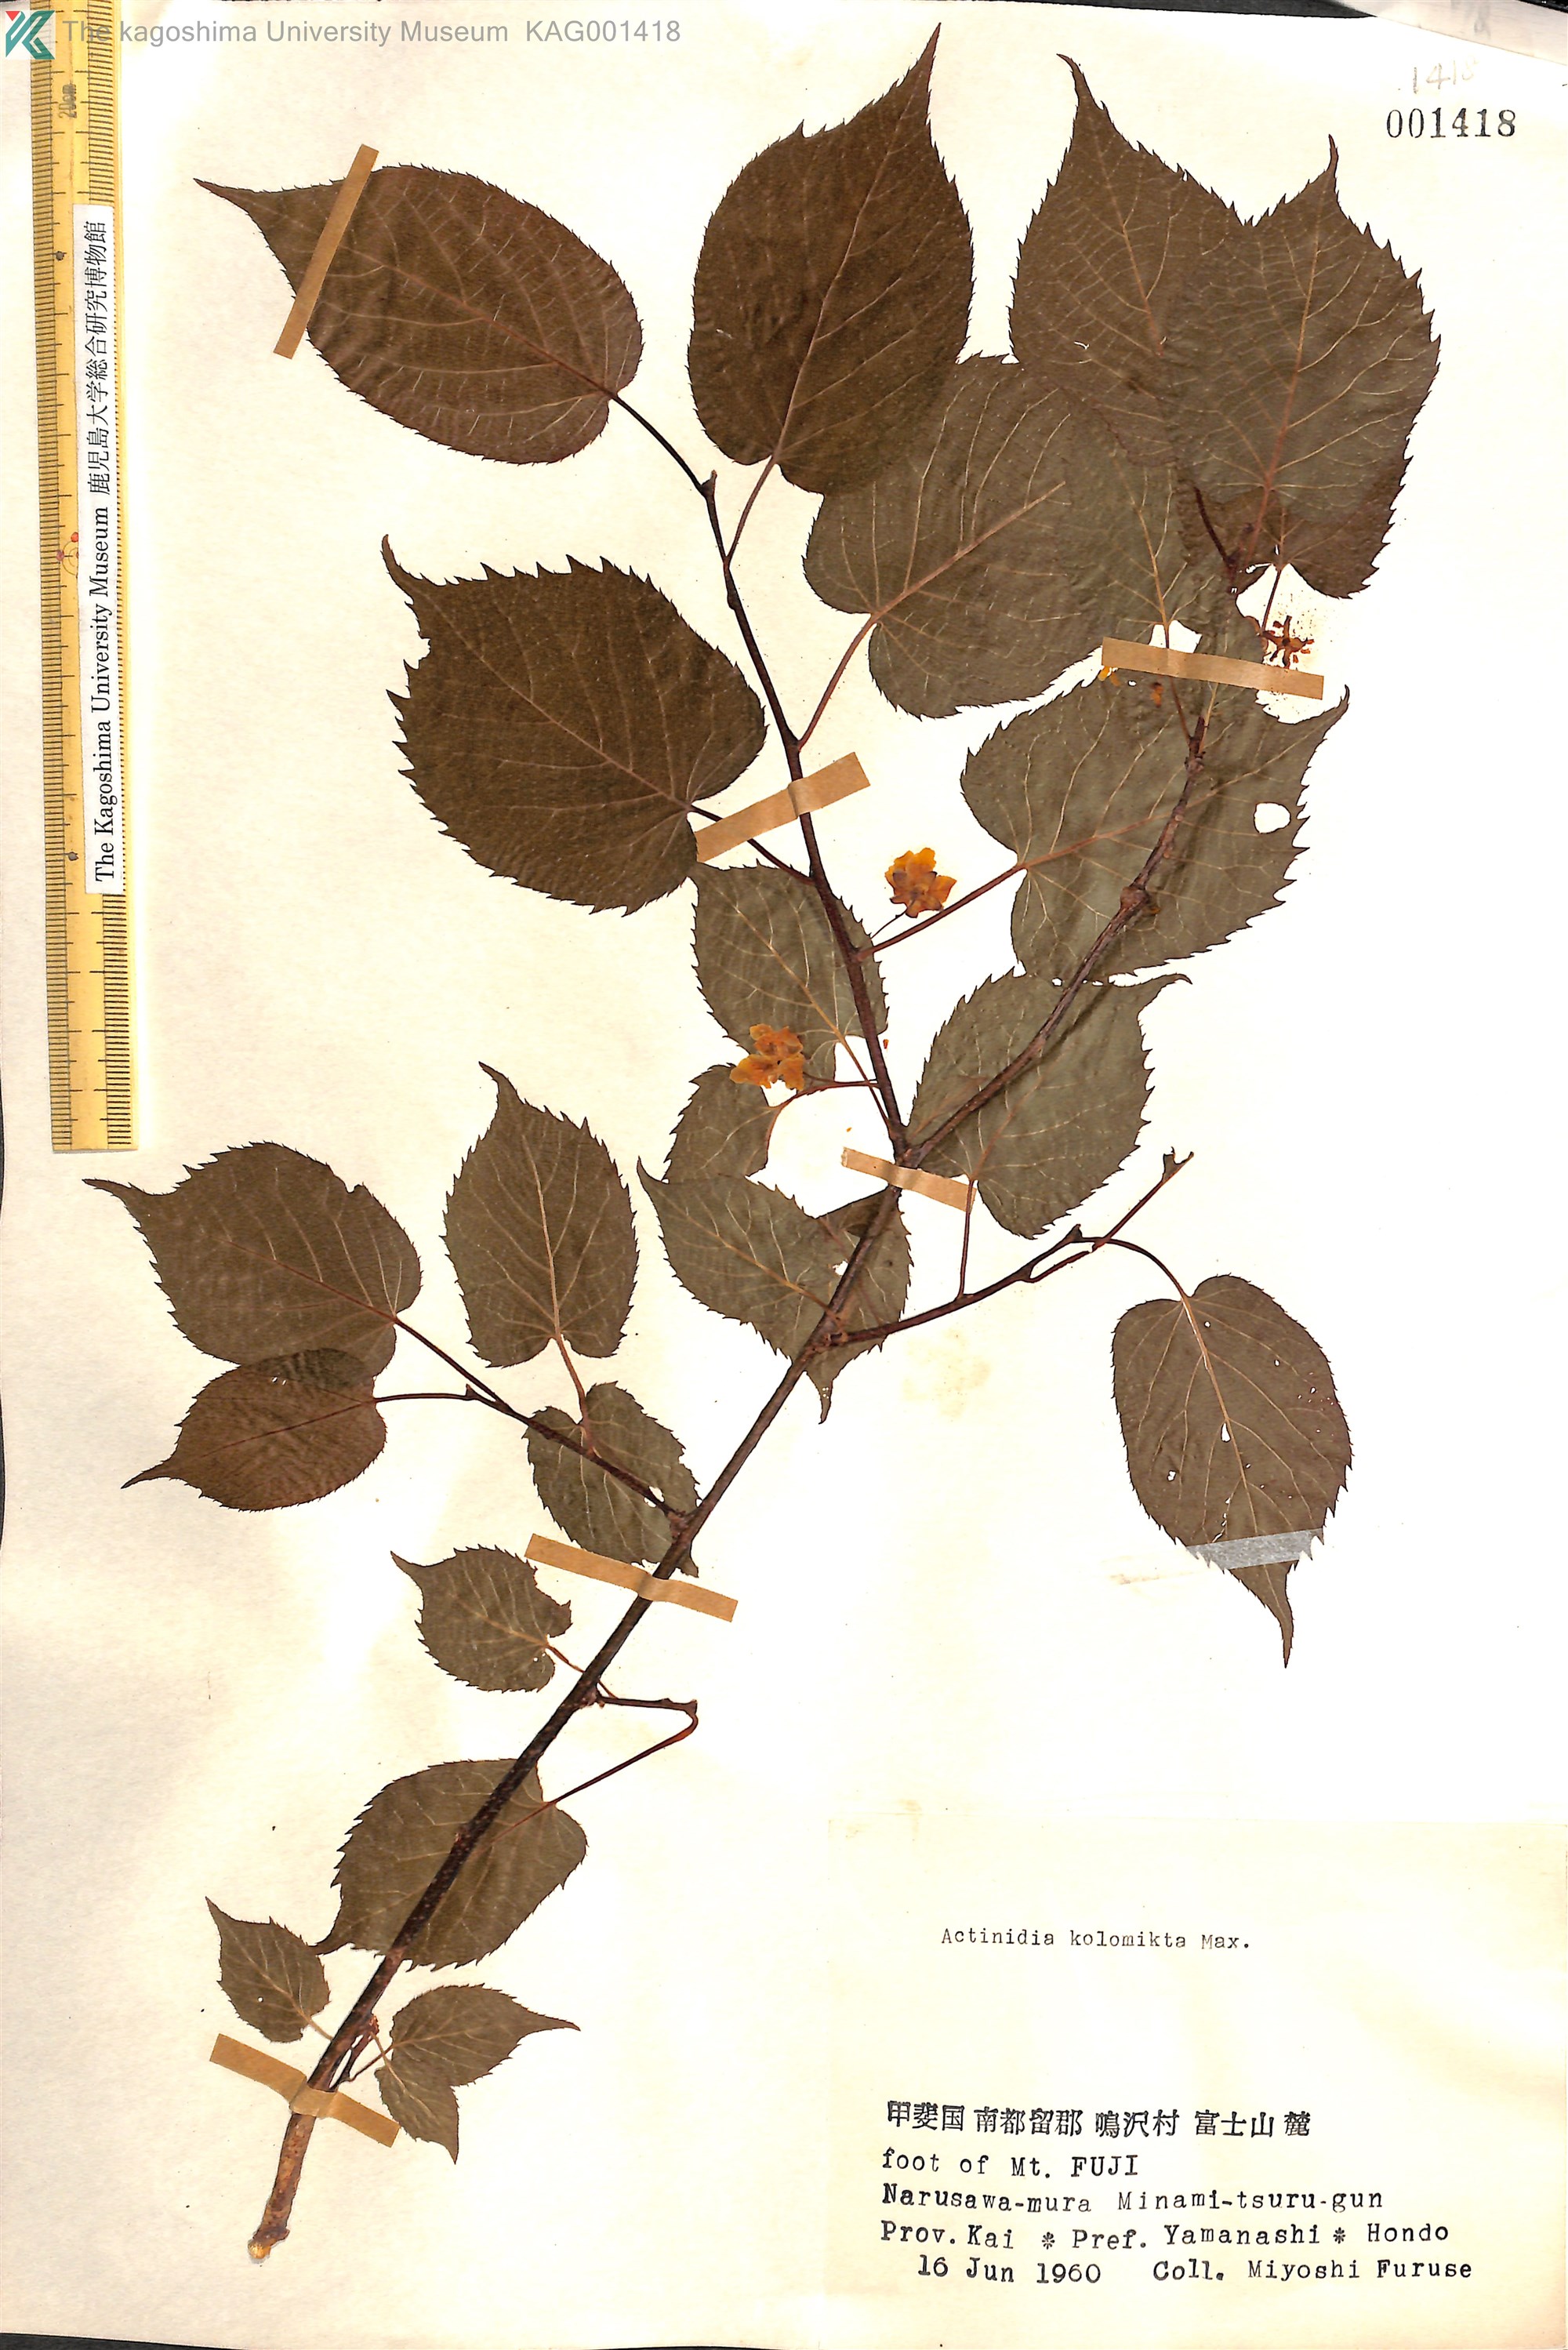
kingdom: Plantae
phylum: Tracheophyta
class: Magnoliopsida
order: Ericales
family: Actinidiaceae
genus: Actinidia
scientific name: Actinidia kolomikta
